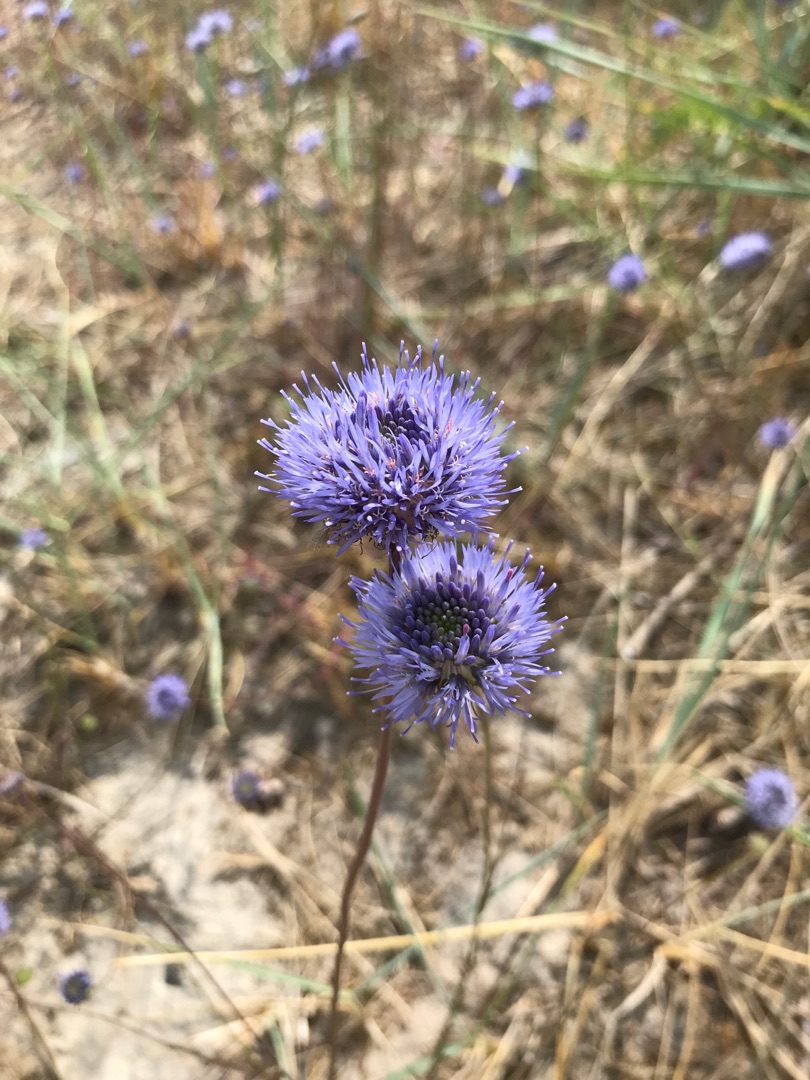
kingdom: Plantae
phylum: Tracheophyta
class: Magnoliopsida
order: Asterales
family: Campanulaceae
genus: Jasione
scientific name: Jasione montana
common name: Blåmunke
